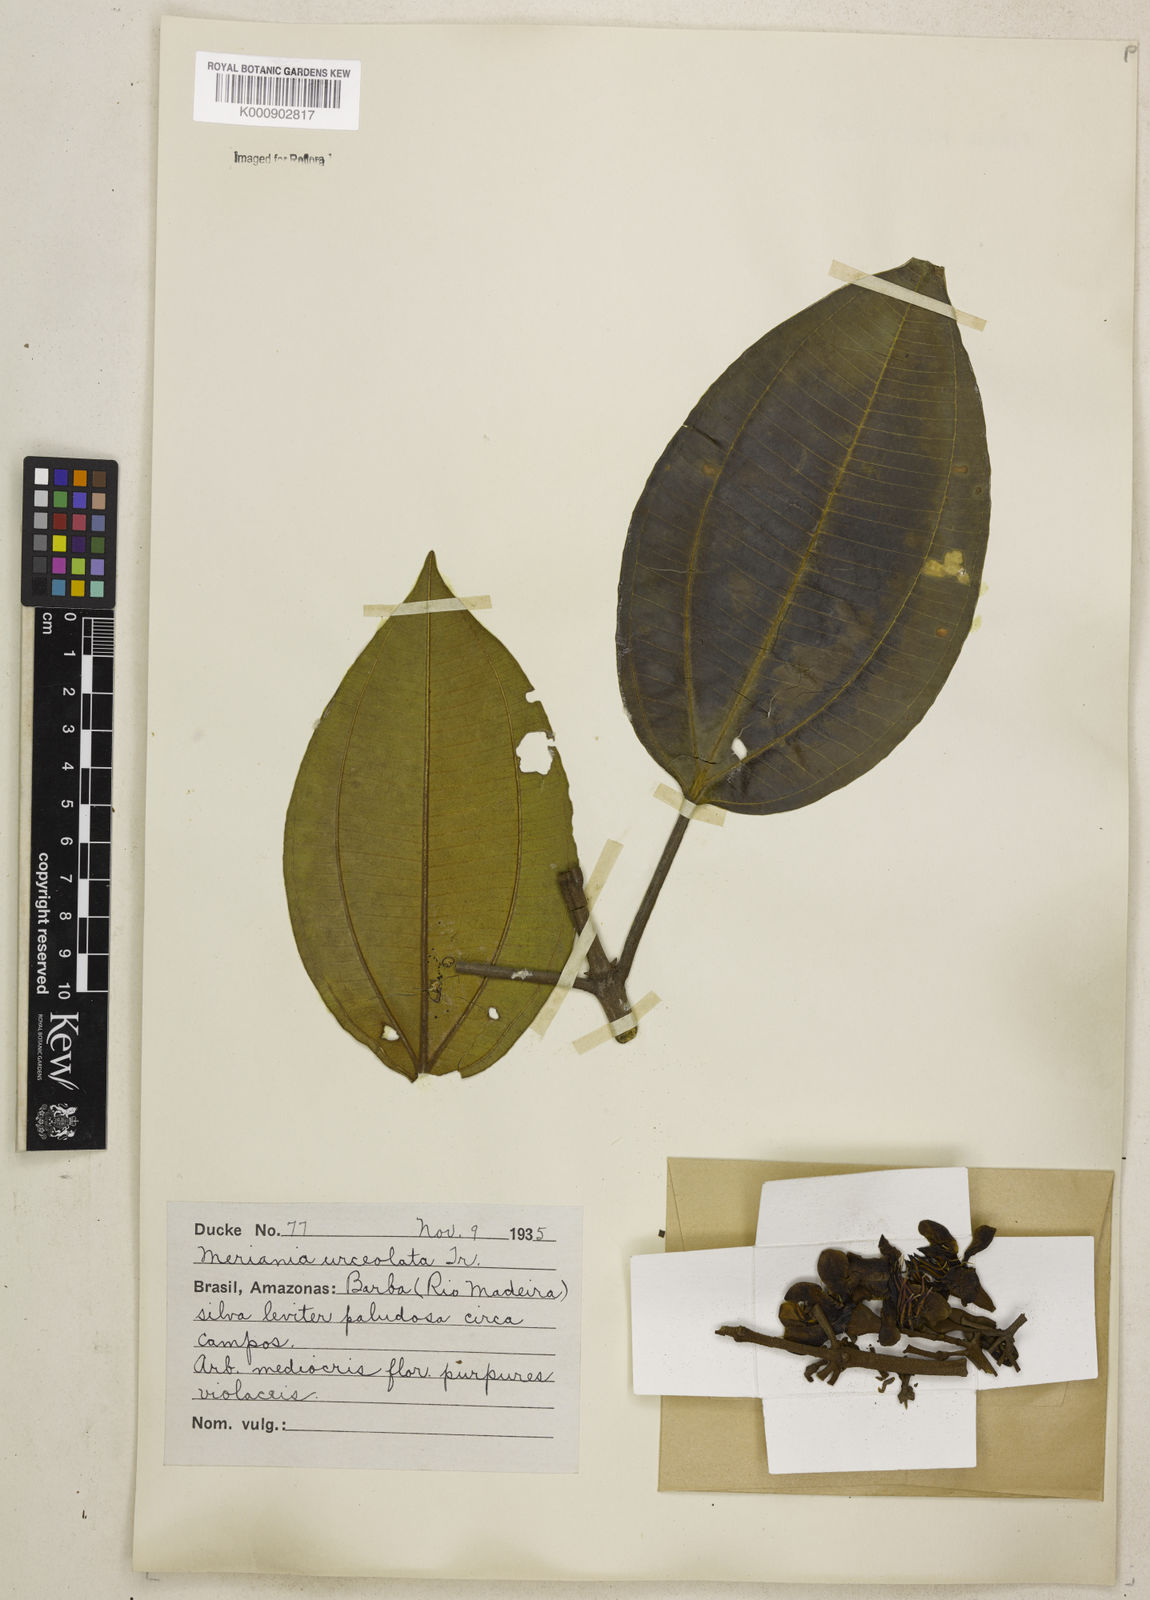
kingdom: Plantae
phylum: Tracheophyta
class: Magnoliopsida
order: Myrtales
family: Melastomataceae
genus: Meriania
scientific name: Meriania urceolata
